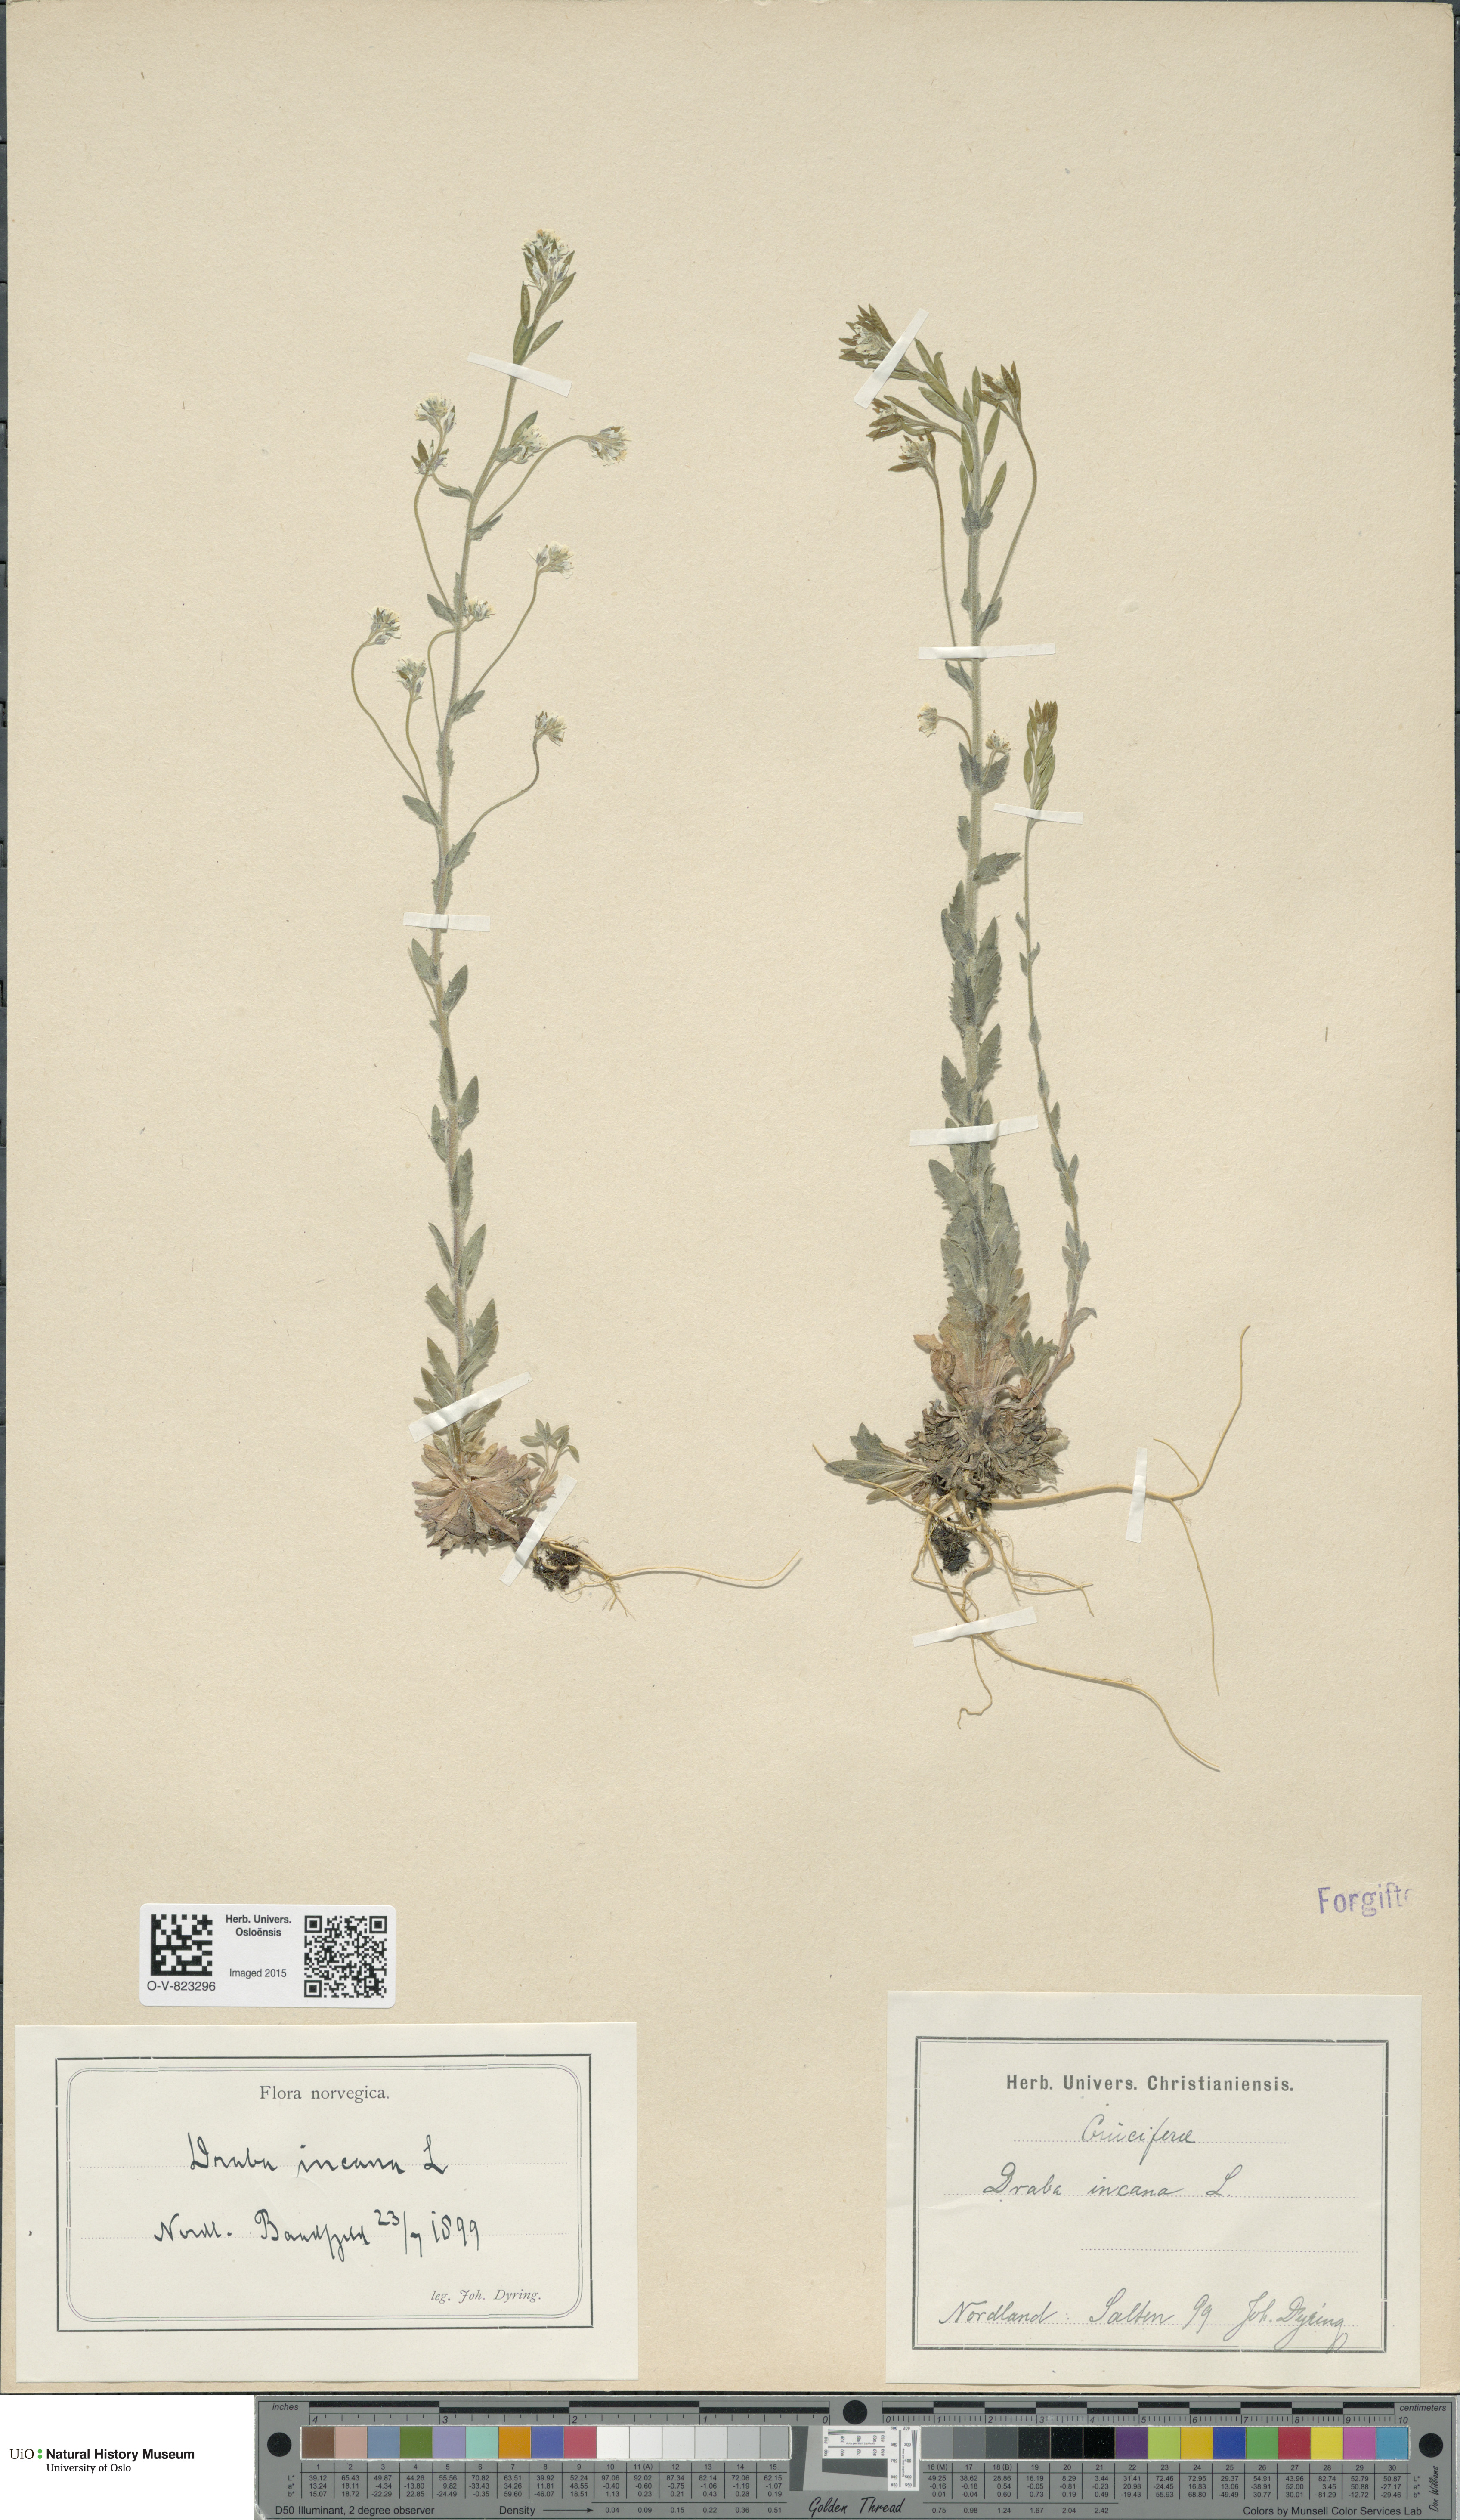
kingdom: Plantae
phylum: Tracheophyta
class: Magnoliopsida
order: Brassicales
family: Brassicaceae
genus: Draba
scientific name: Draba incana
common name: Hoary whitlow-grass
